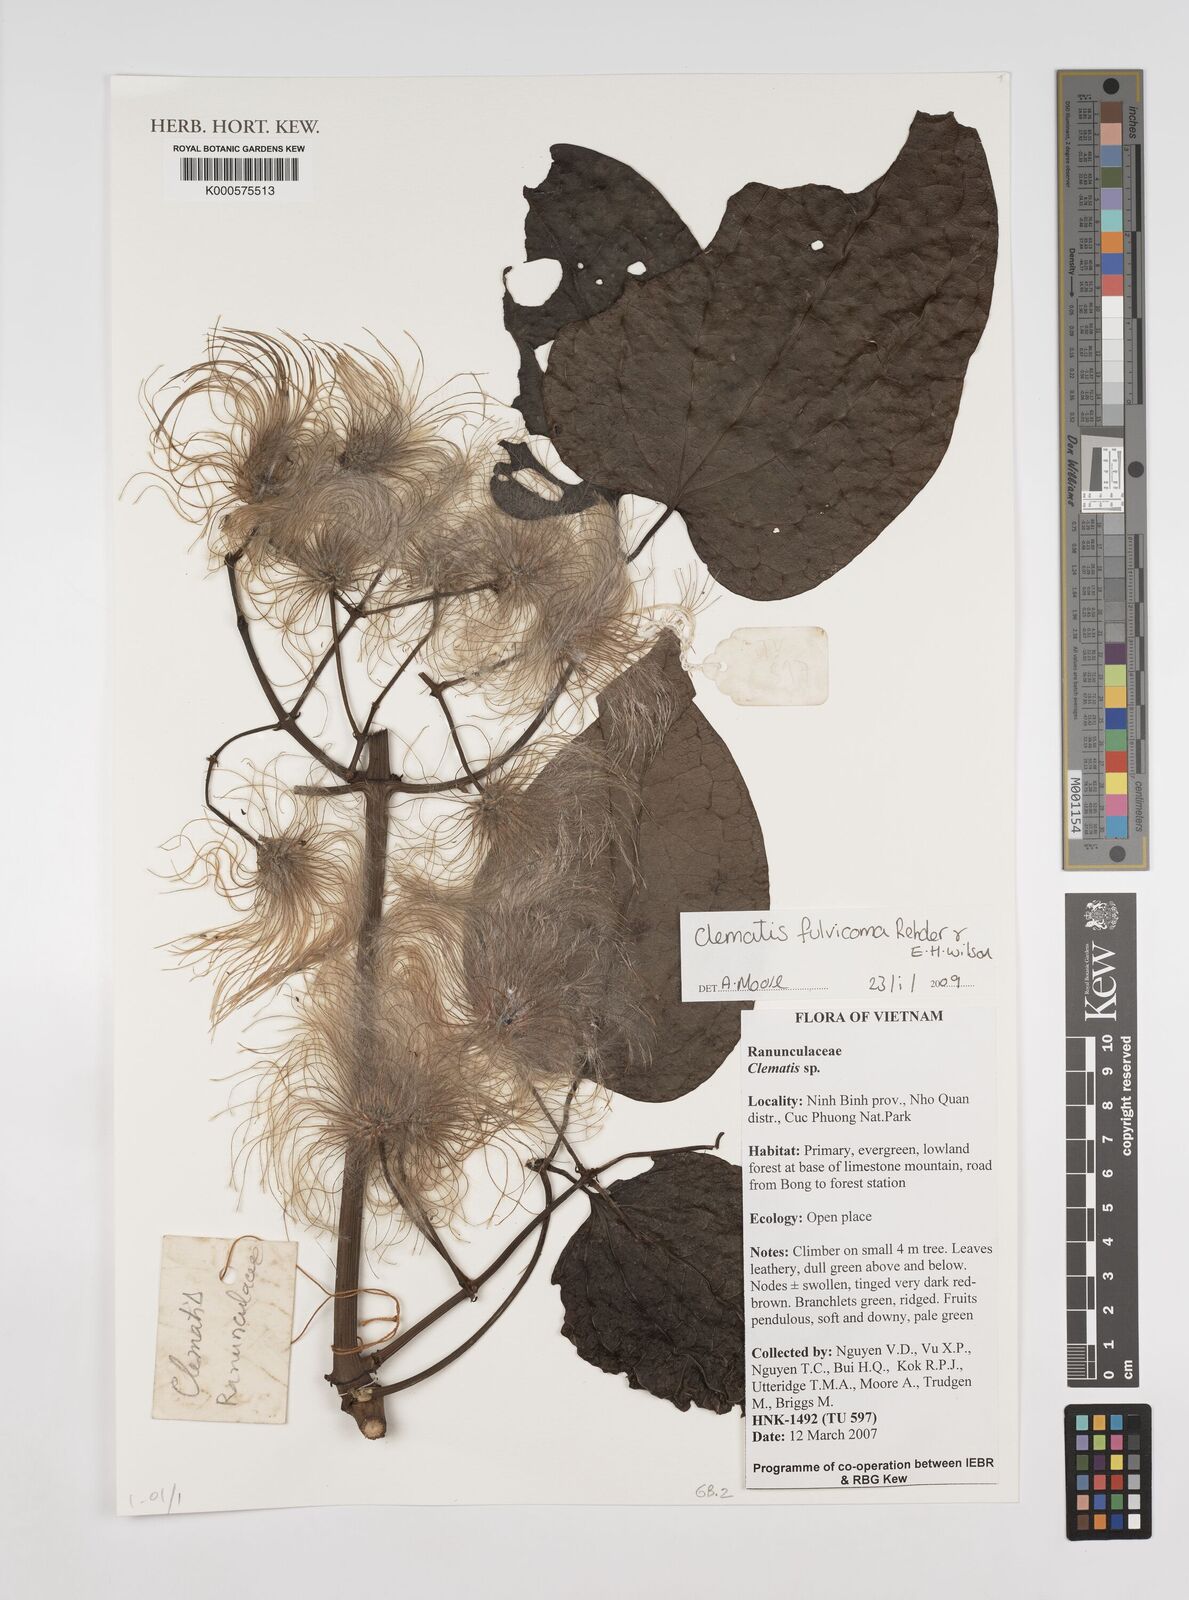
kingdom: Plantae
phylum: Tracheophyta
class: Magnoliopsida
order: Ranunculales
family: Ranunculaceae
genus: Clematis
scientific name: Clematis fulvicoma
